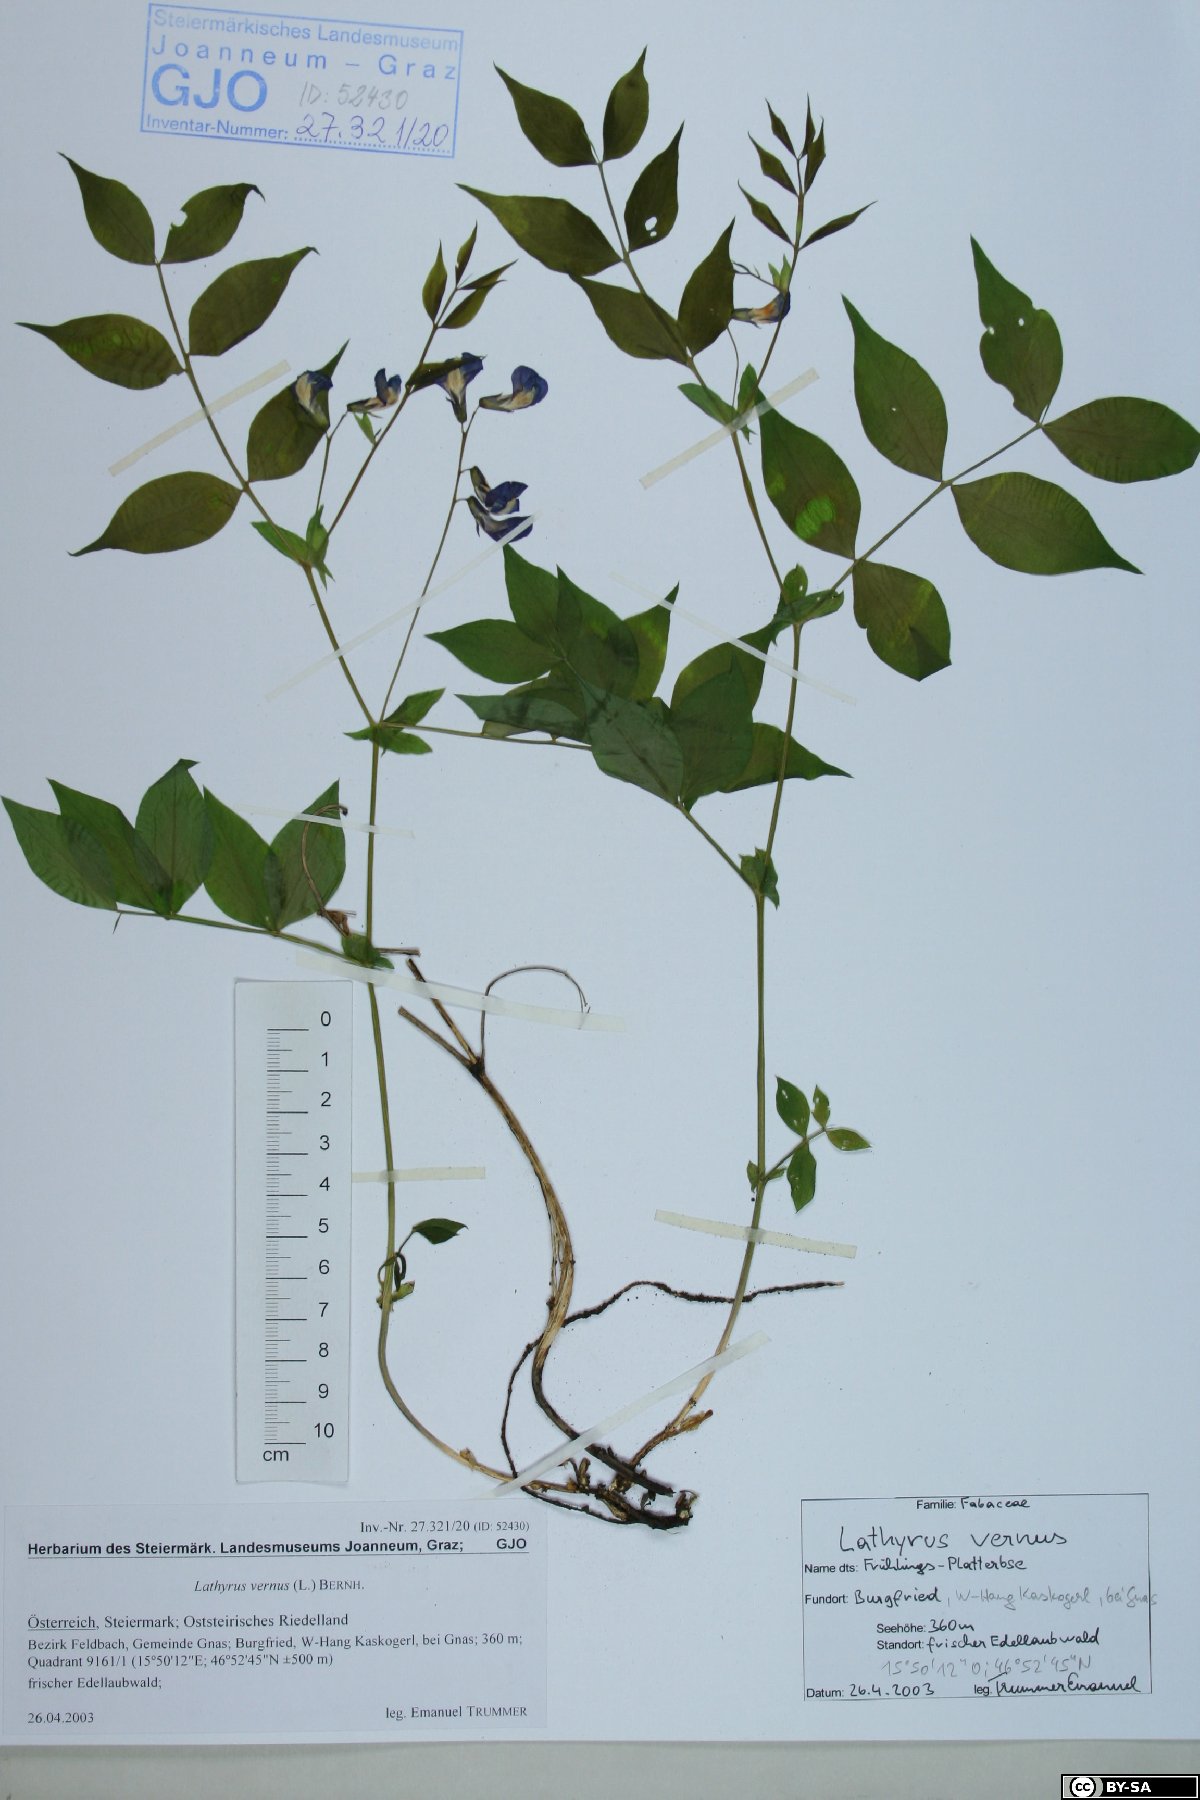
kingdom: Plantae
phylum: Tracheophyta
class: Magnoliopsida
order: Fabales
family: Fabaceae
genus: Lathyrus
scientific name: Lathyrus vernus
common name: Spring pea
